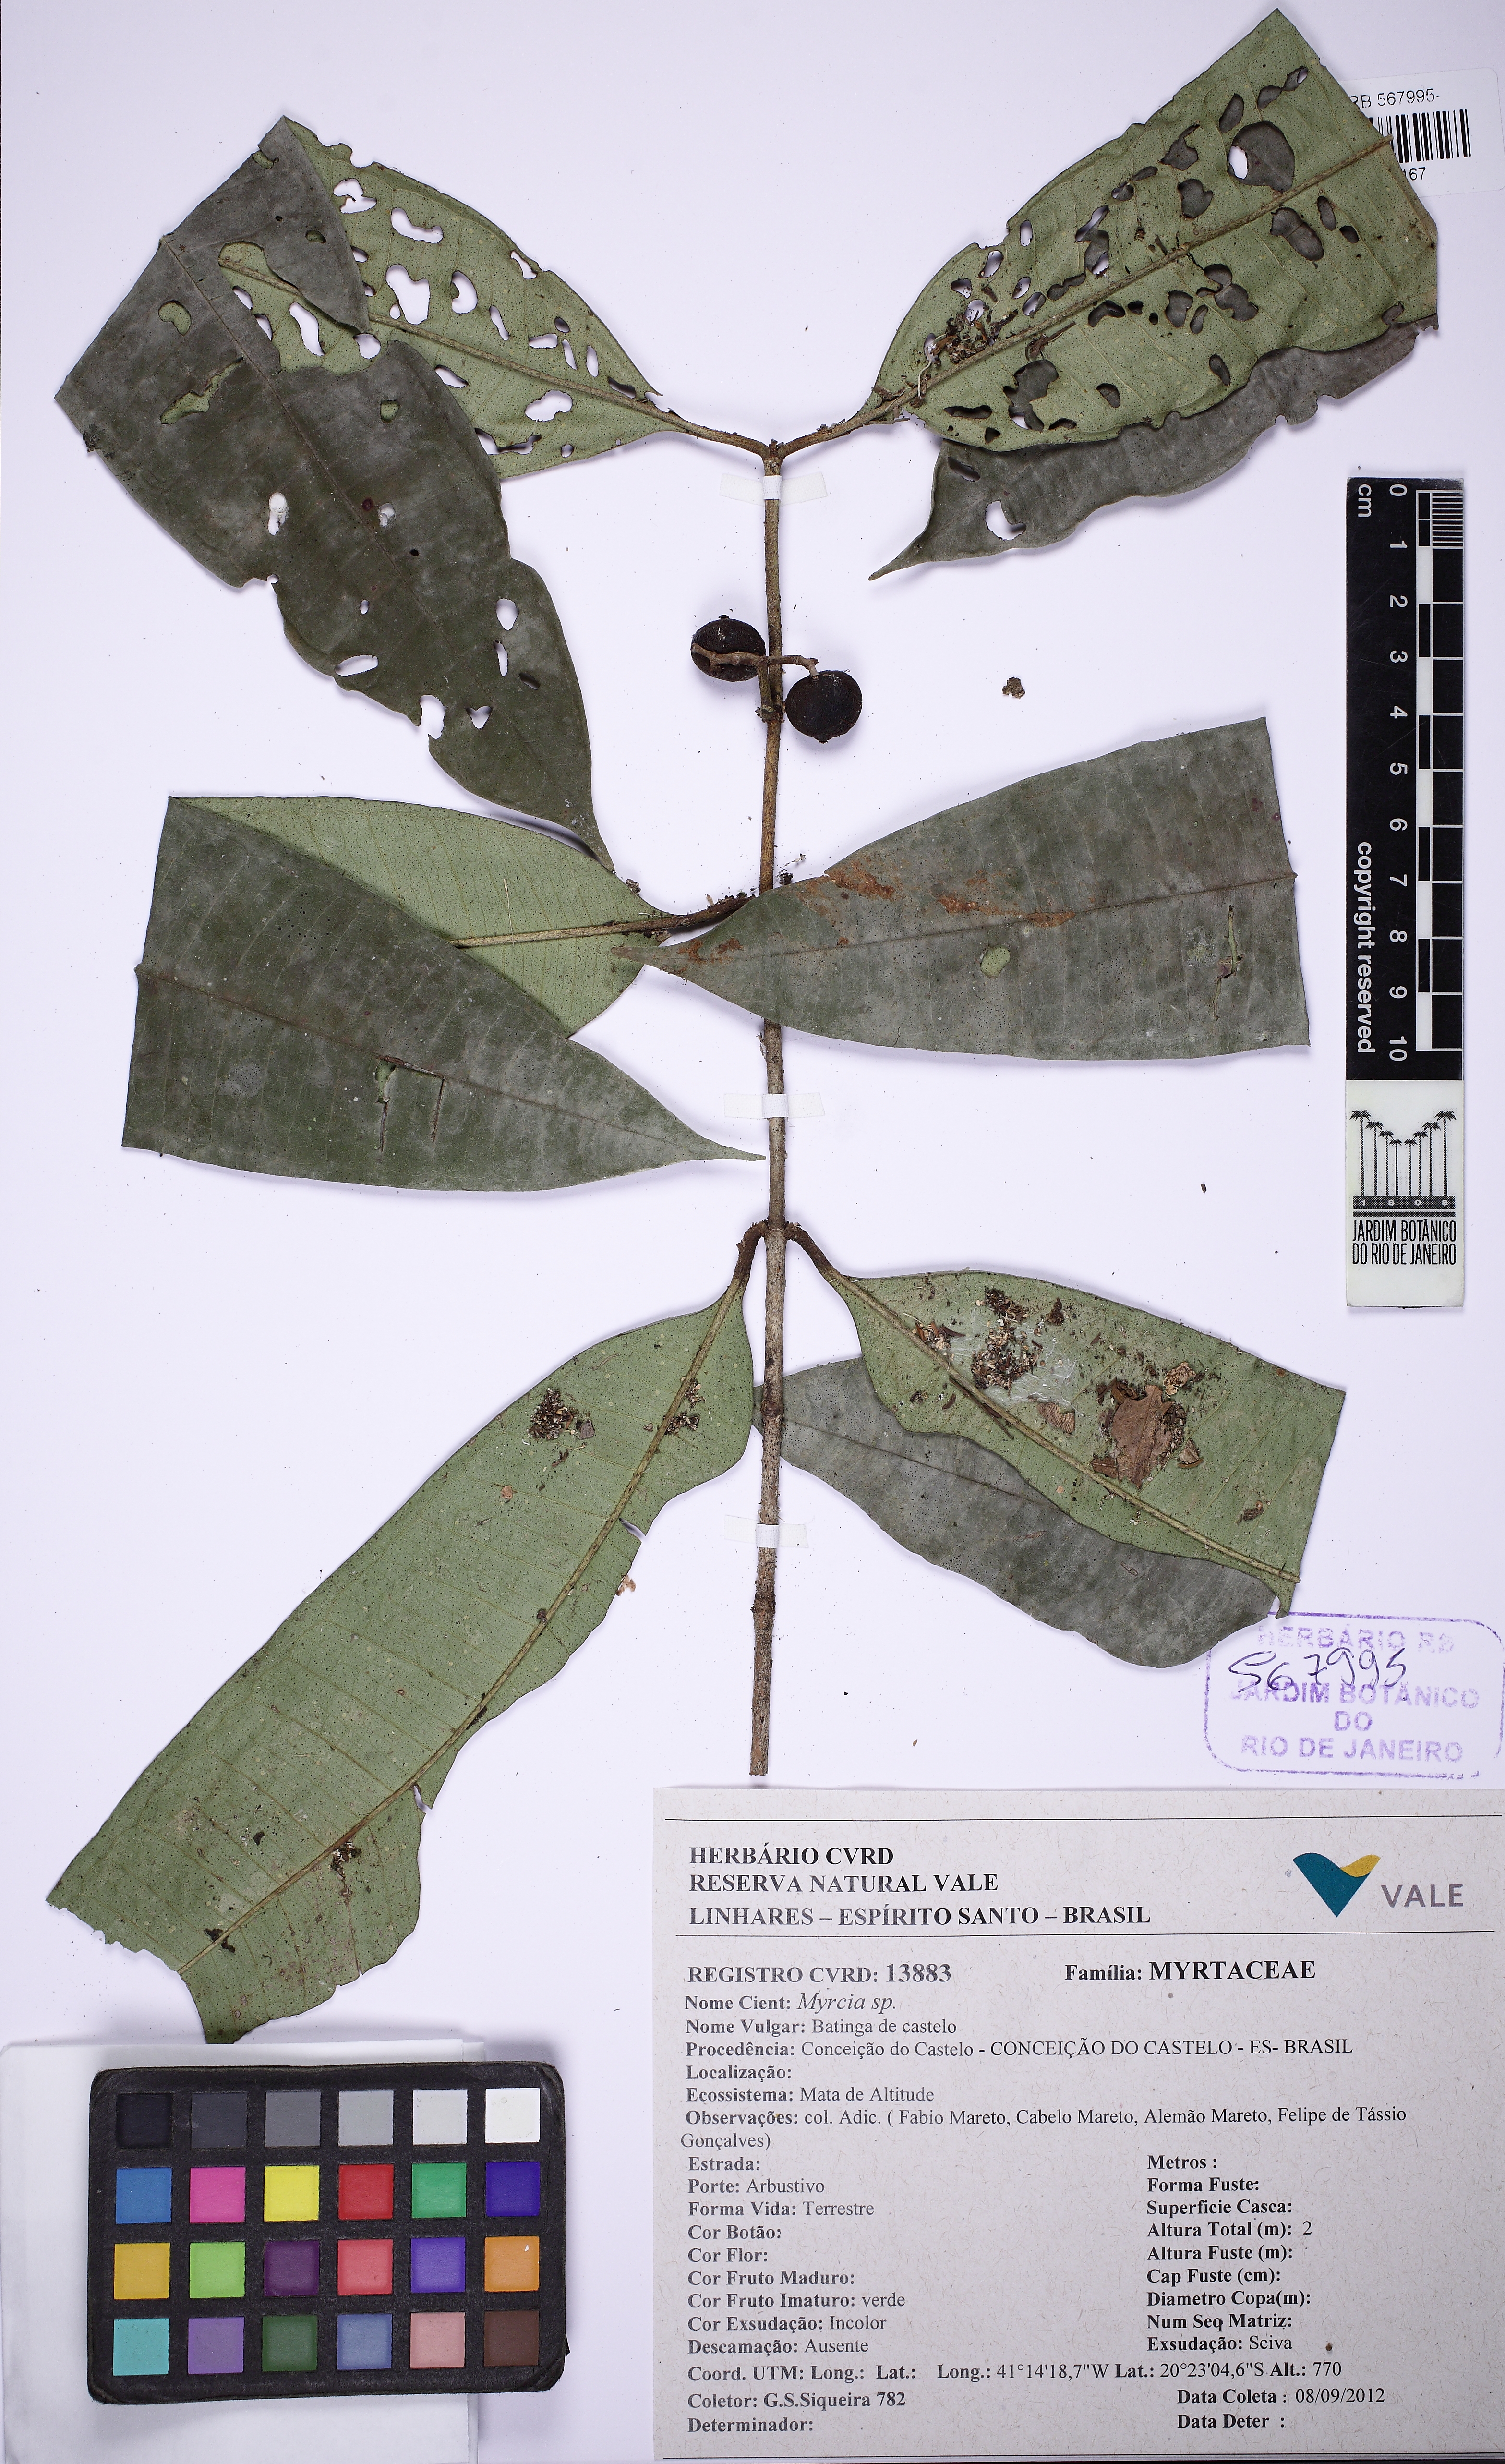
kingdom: Plantae
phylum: Tracheophyta
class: Magnoliopsida
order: Myrtales
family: Myrtaceae
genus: Myrcia
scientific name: Myrcia teuscheriana
